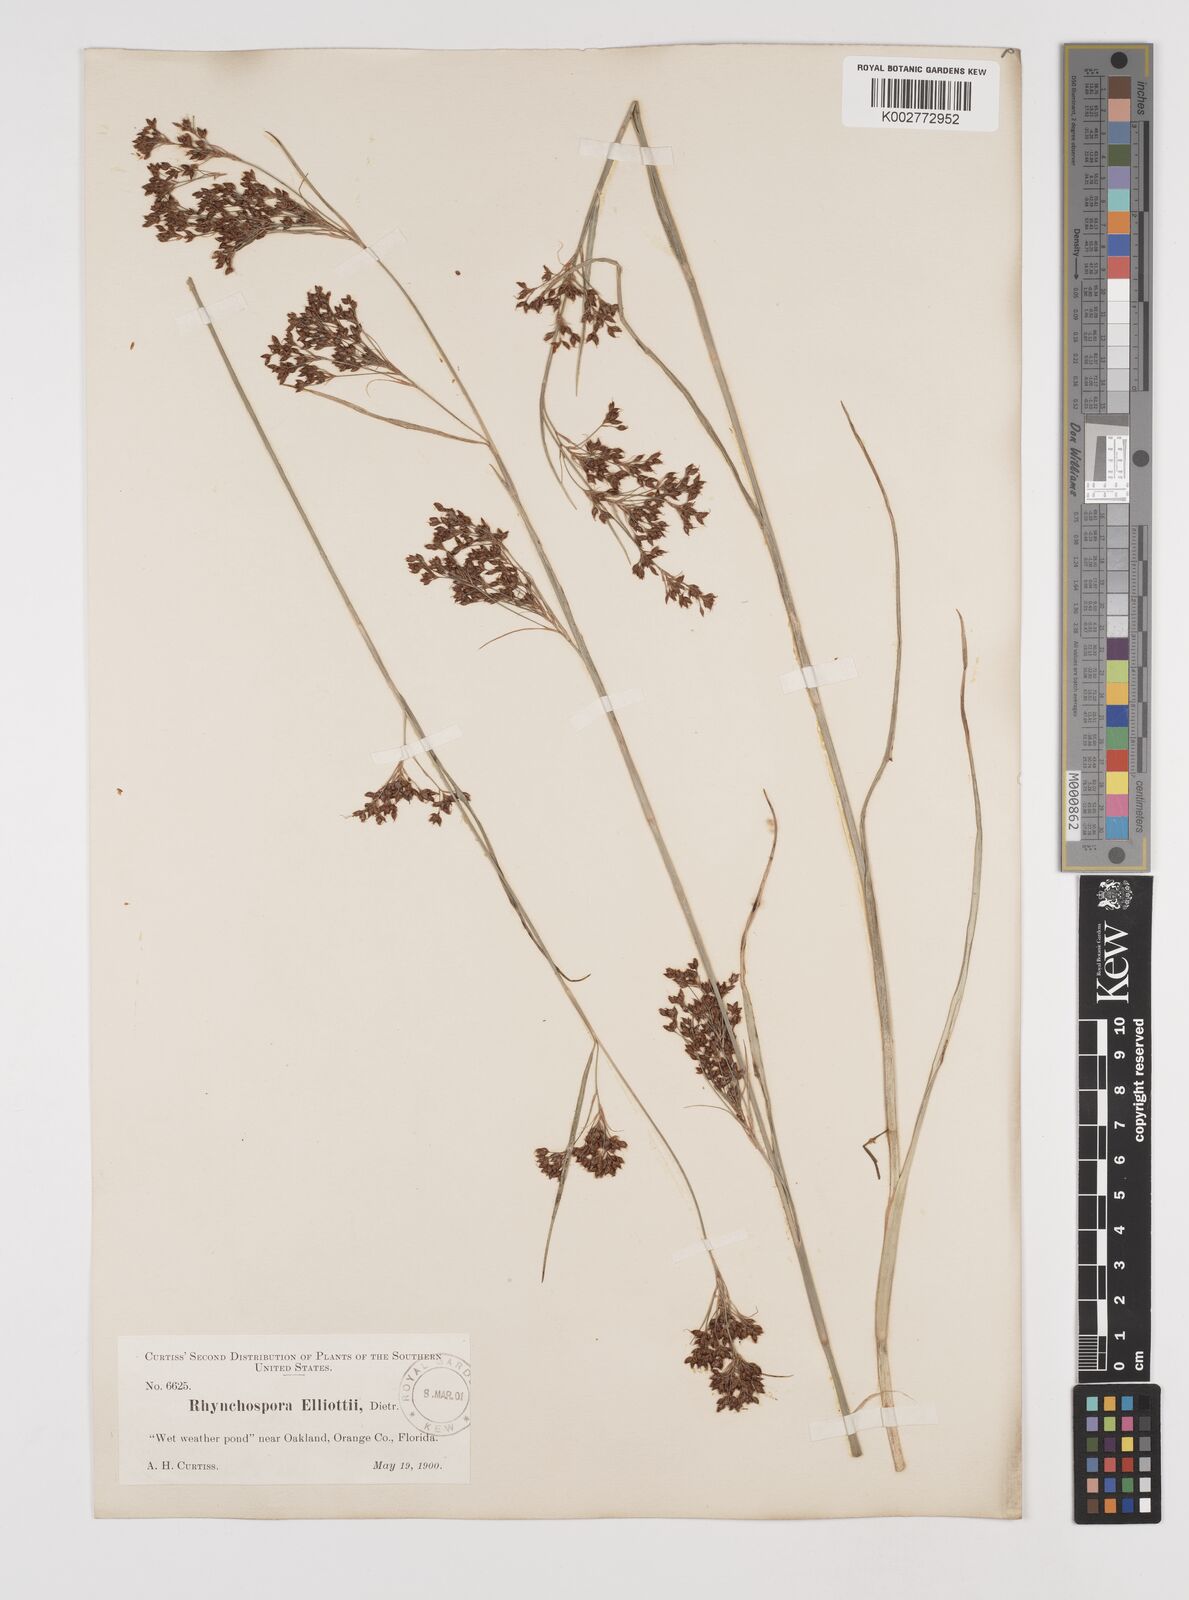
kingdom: Plantae
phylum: Tracheophyta
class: Liliopsida
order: Poales
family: Cyperaceae
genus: Rhynchospora
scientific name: Rhynchospora microcarpa
